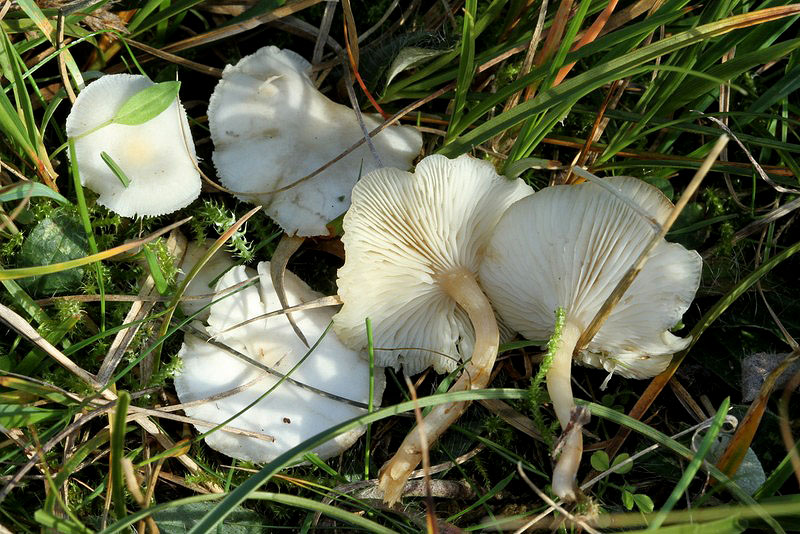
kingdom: Fungi
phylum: Basidiomycota
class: Agaricomycetes
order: Agaricales
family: Tricholomataceae
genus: Clitocybe
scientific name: Clitocybe agrestis
